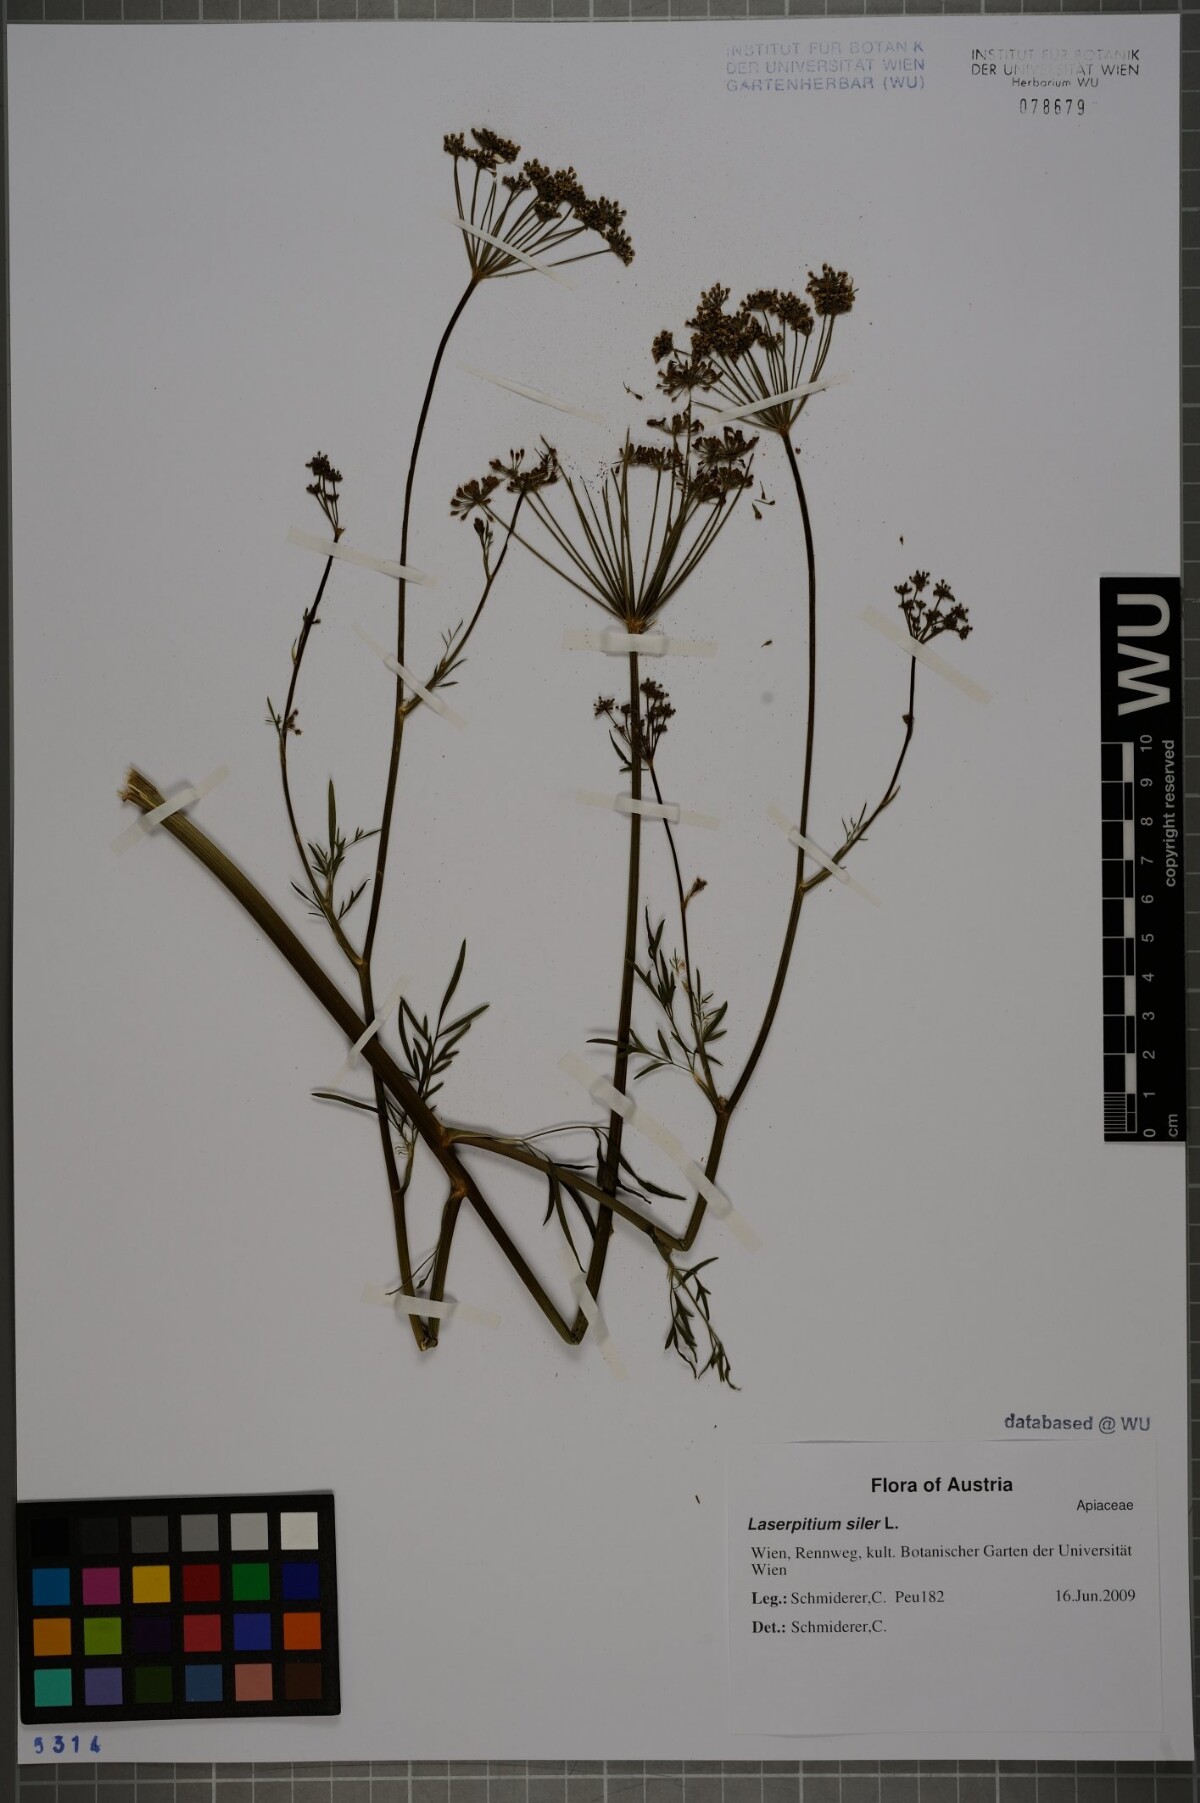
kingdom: Plantae
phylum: Tracheophyta
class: Magnoliopsida
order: Apiales
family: Apiaceae
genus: Siler
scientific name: Siler montanum
